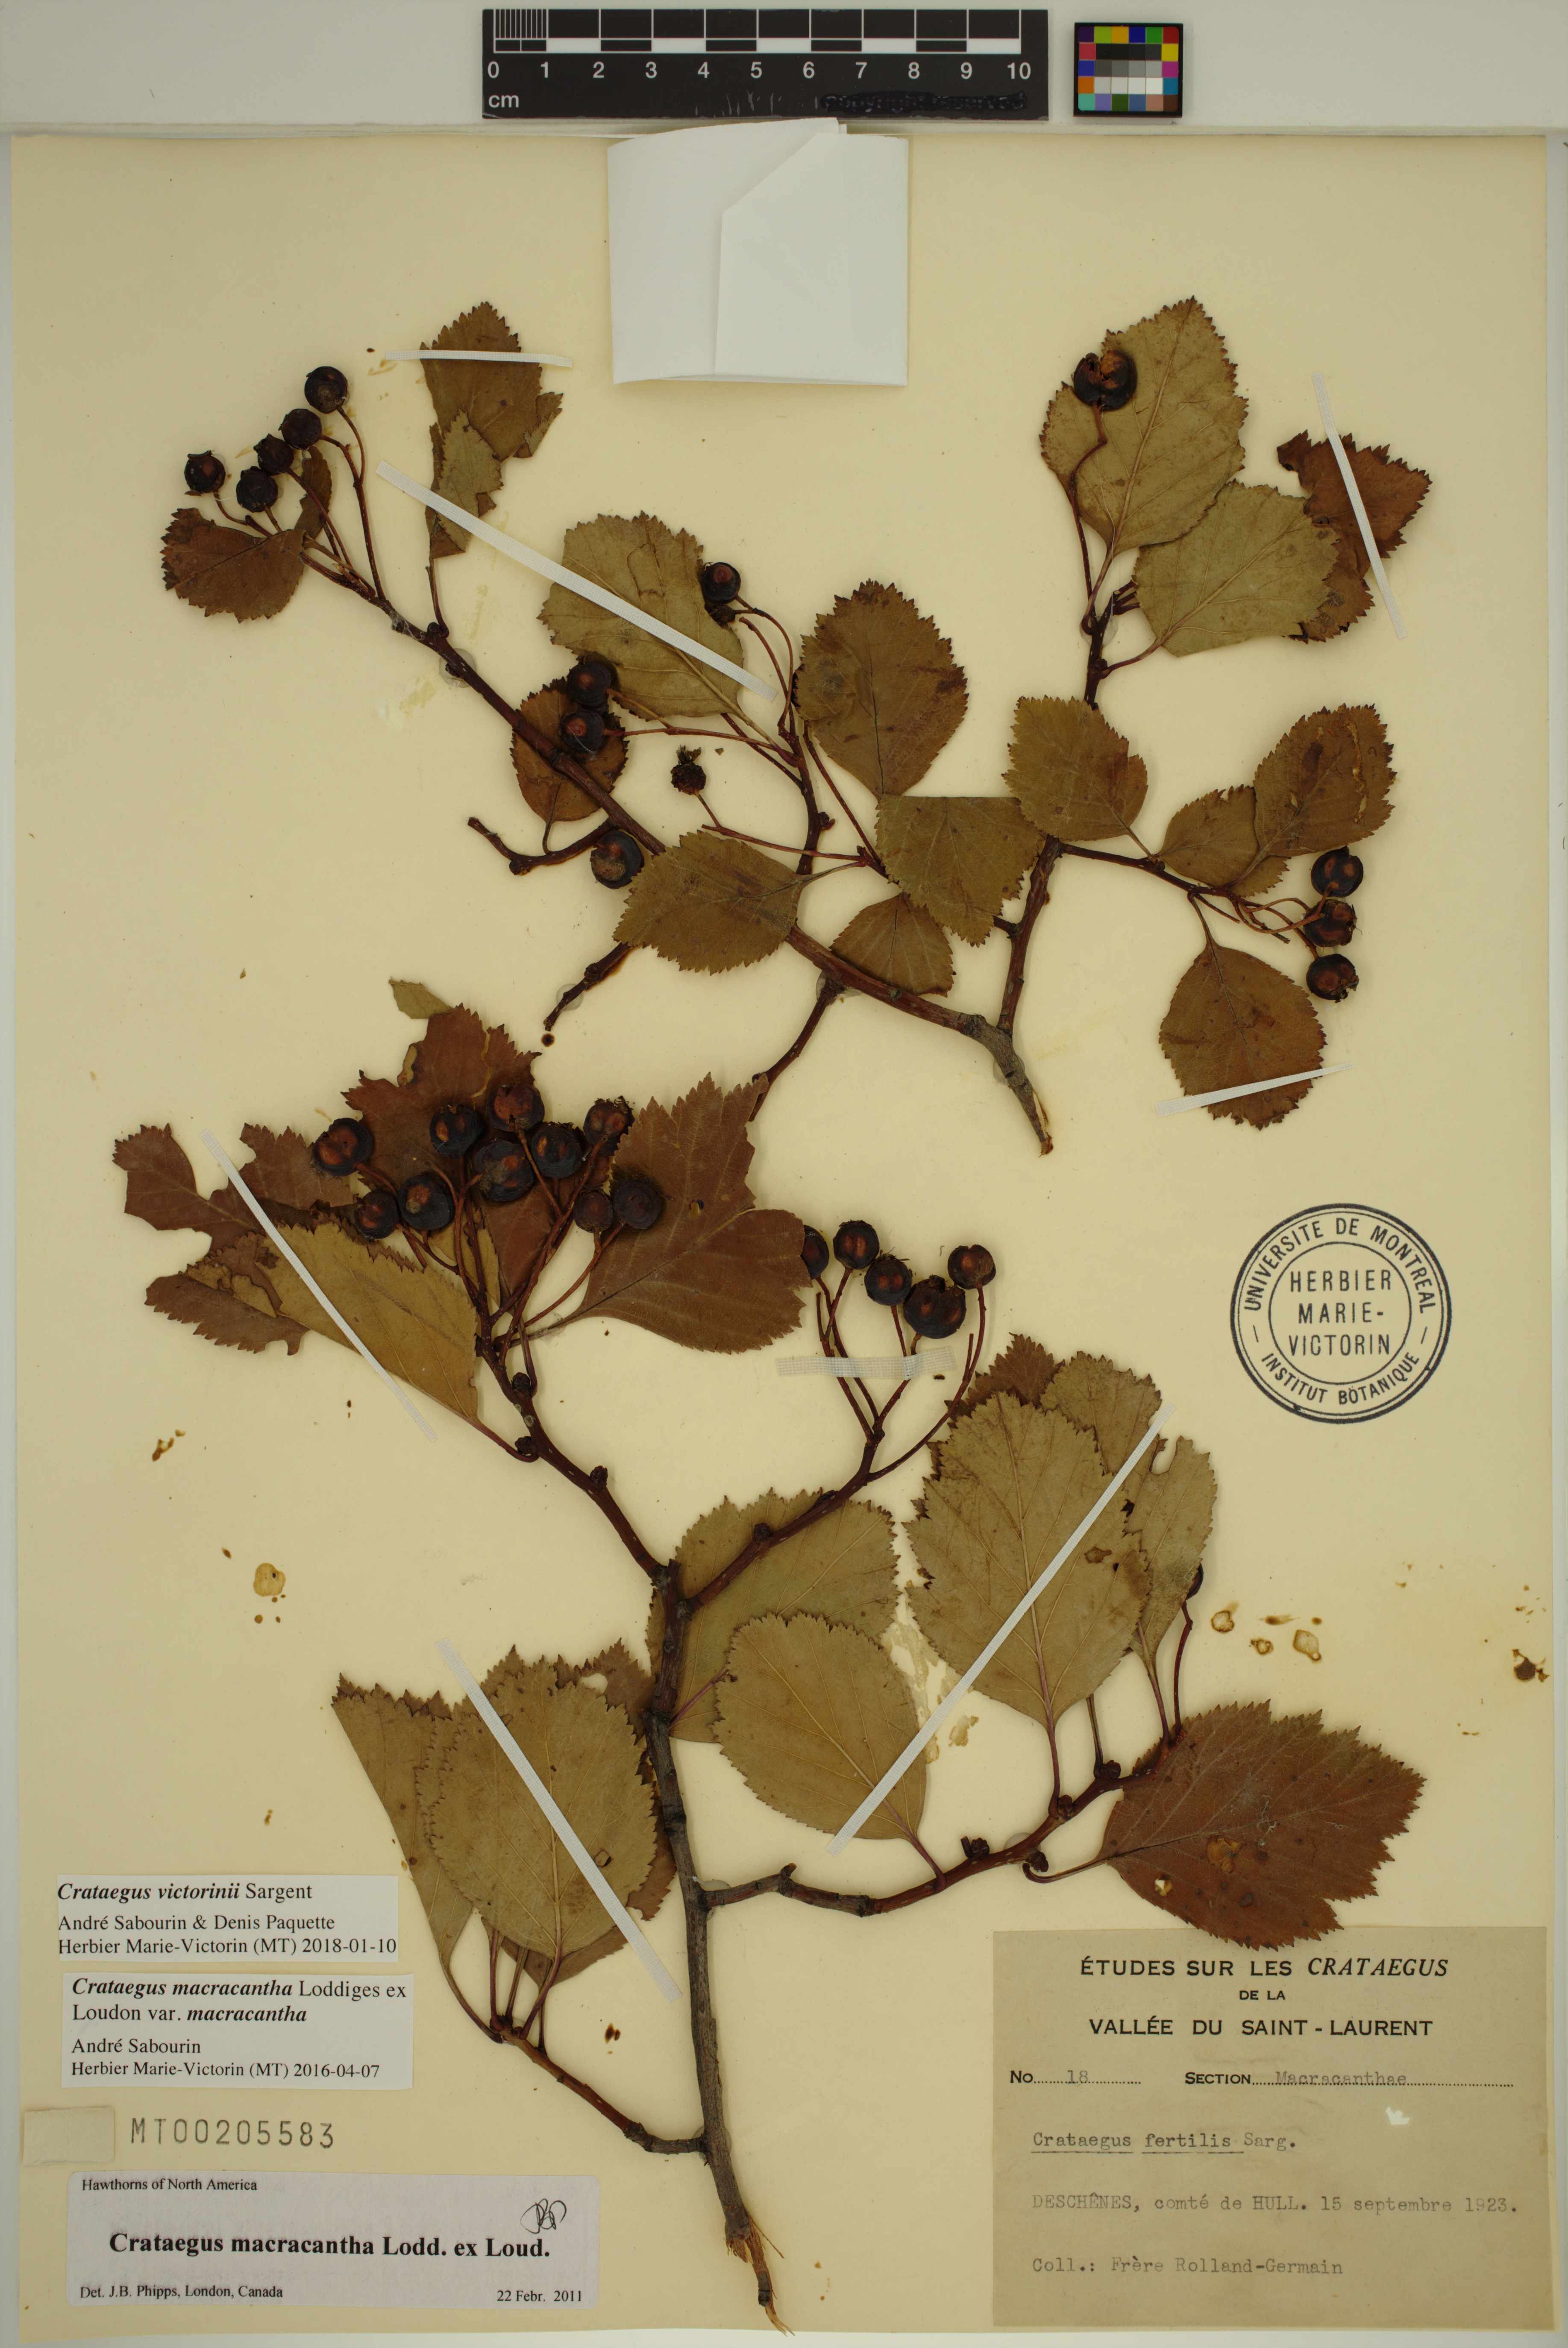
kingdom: Plantae
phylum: Tracheophyta
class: Magnoliopsida
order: Rosales
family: Rosaceae
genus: Crataegus
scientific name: Crataegus macracantha
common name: Large-thorn hawthorn
